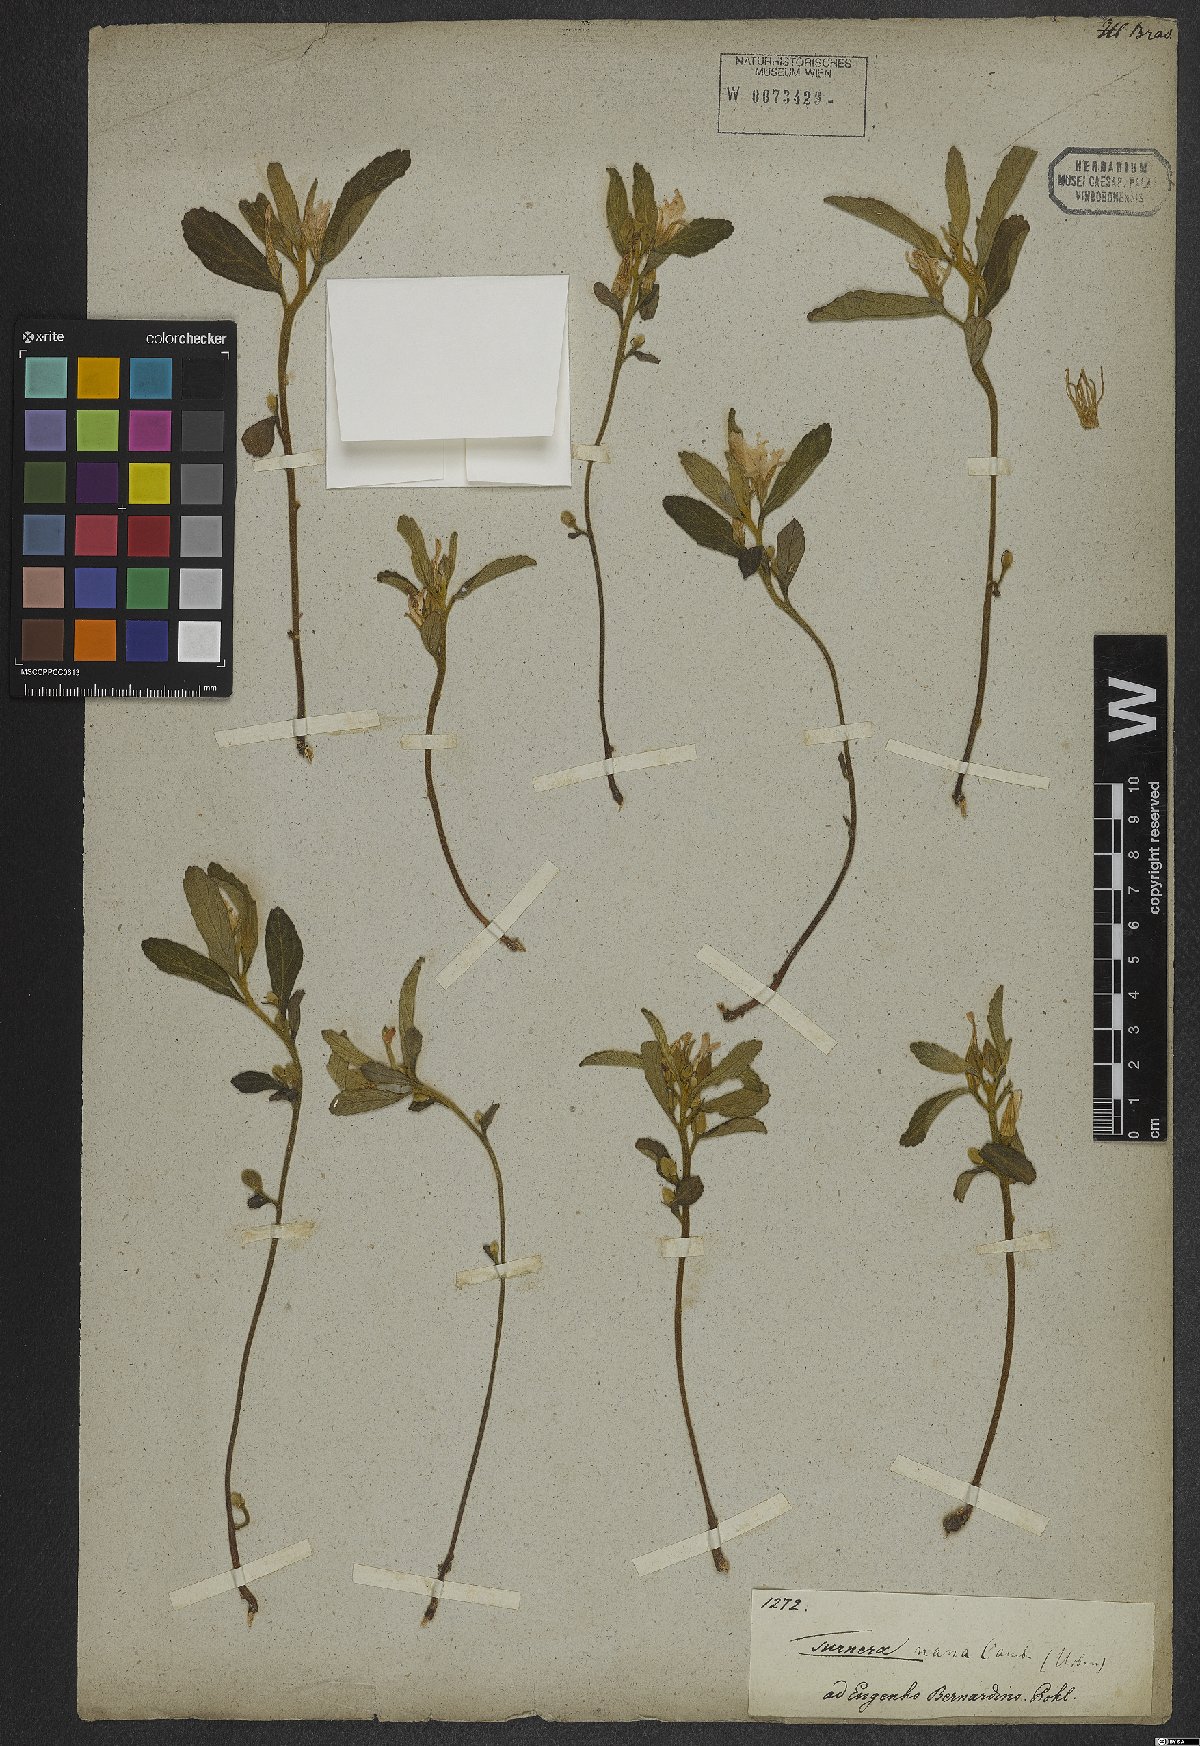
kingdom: Plantae
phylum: Tracheophyta
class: Magnoliopsida
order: Malpighiales
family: Turneraceae
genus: Turnera
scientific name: Turnera opifera
